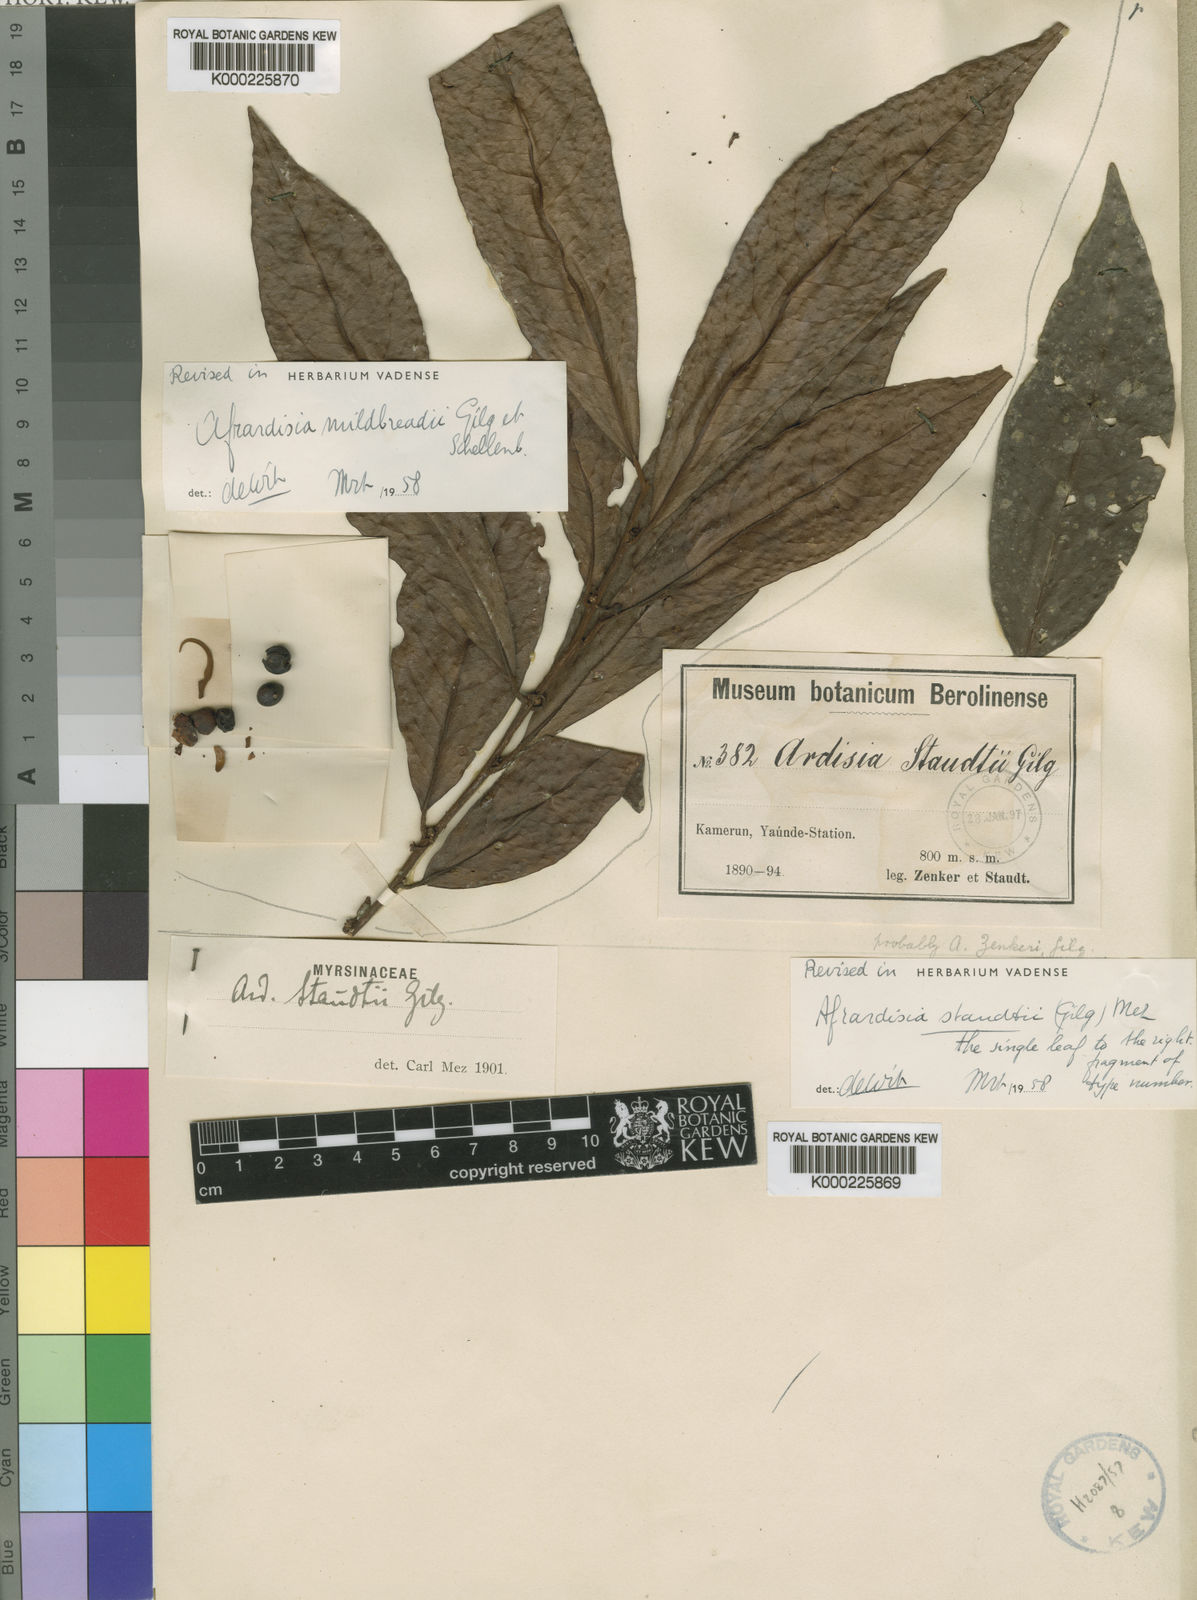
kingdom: Plantae
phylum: Tracheophyta
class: Magnoliopsida
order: Ericales
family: Primulaceae
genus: Ardisia
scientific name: Ardisia staudtii
